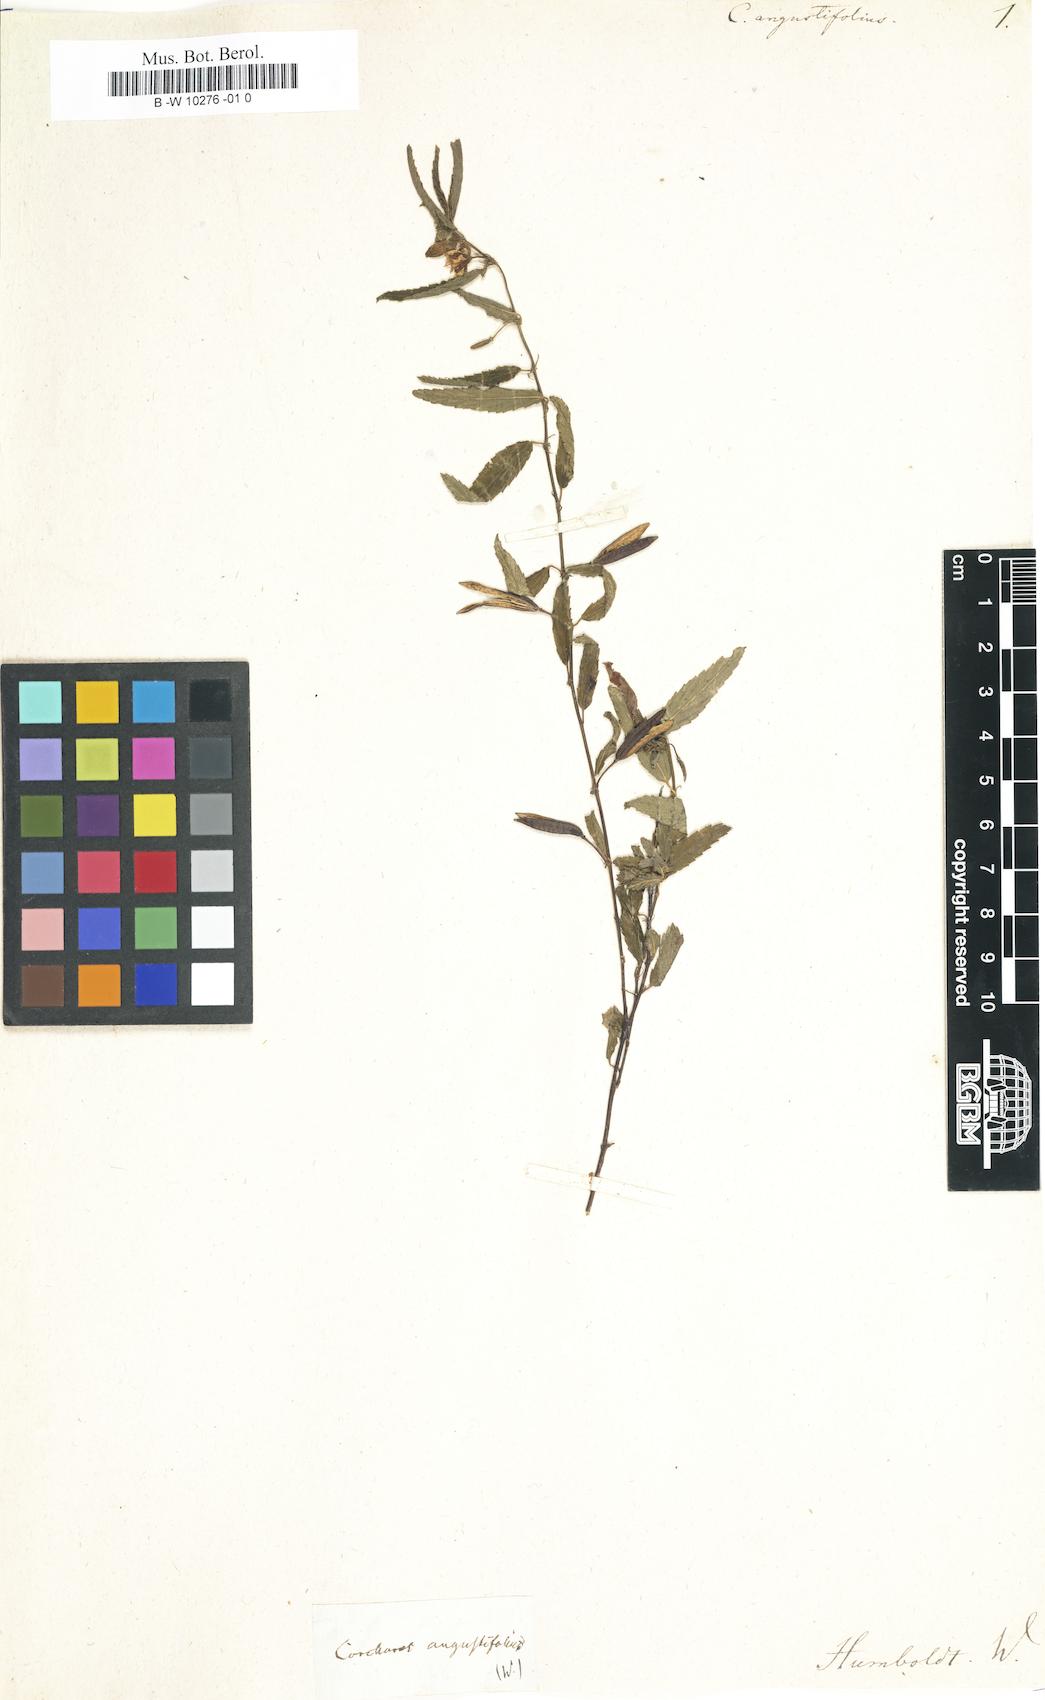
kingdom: Plantae
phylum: Tracheophyta
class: Magnoliopsida
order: Malvales
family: Malvaceae
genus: Corchorus
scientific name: Corchorus angustifolius
